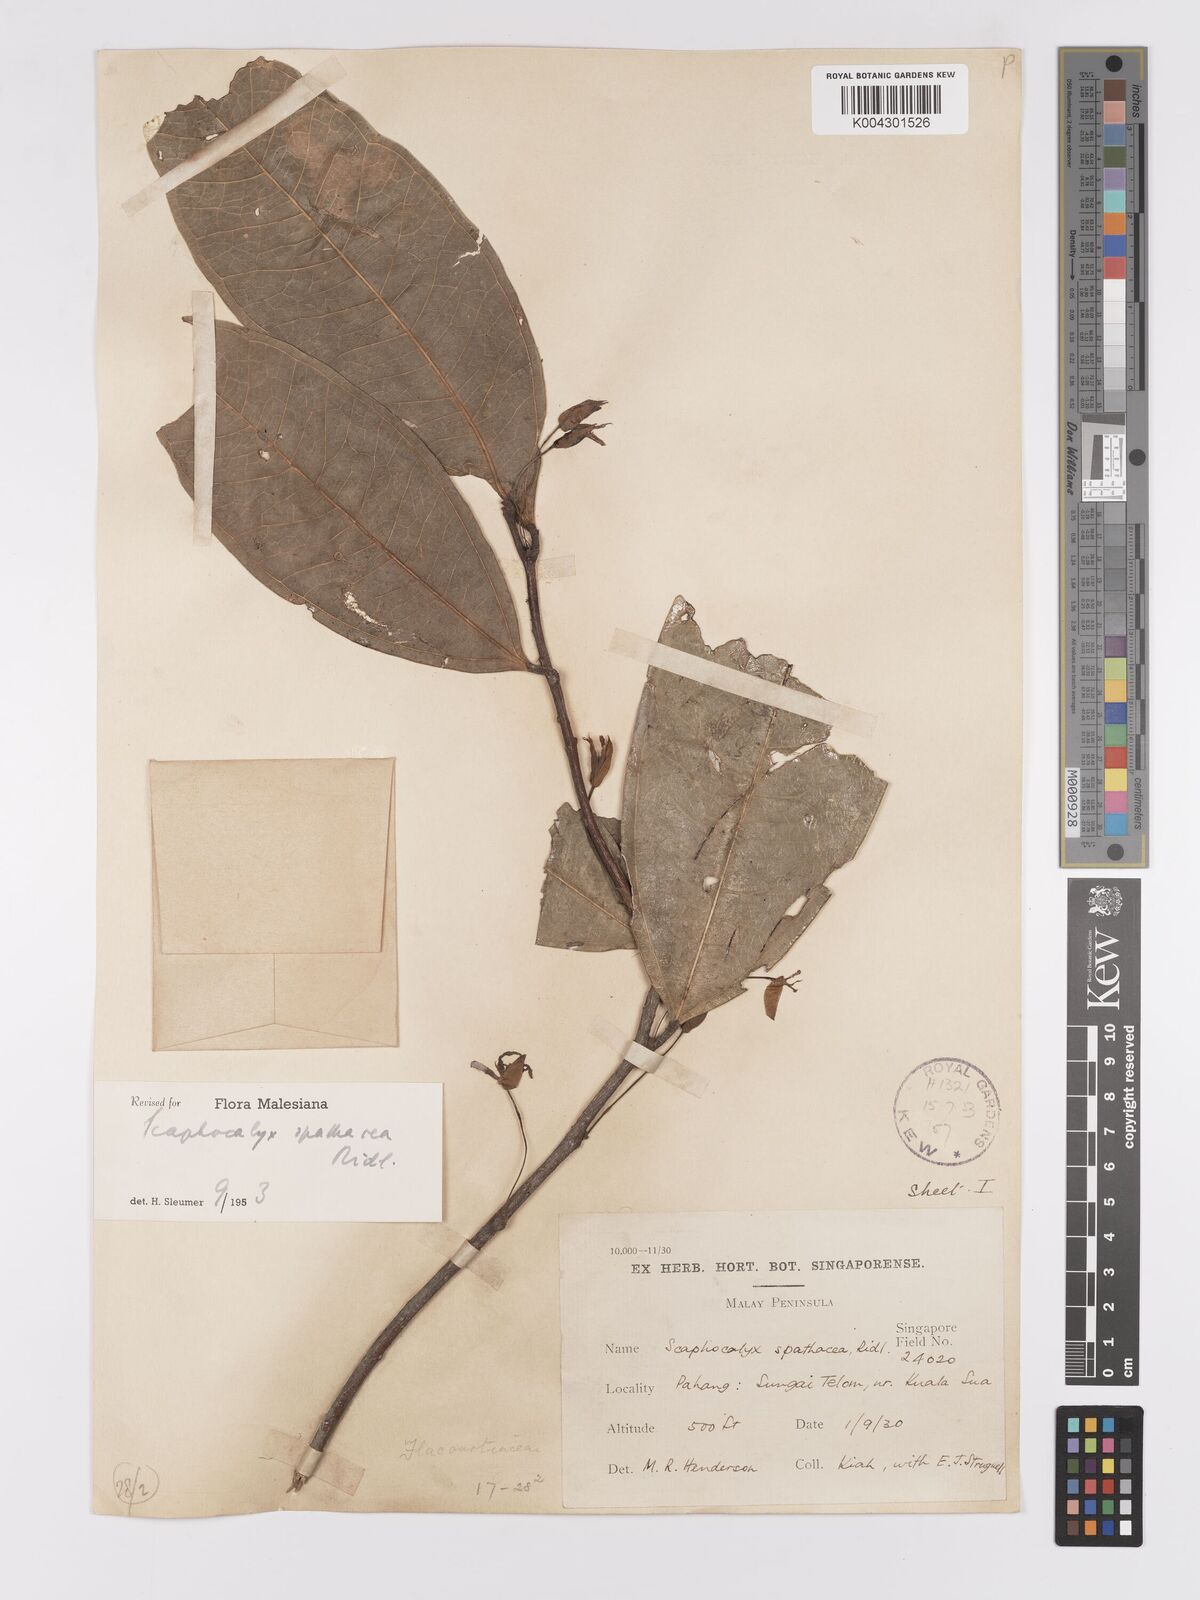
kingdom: Plantae
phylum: Tracheophyta
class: Magnoliopsida
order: Malpighiales
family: Achariaceae
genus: Scaphocalyx
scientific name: Scaphocalyx spathacea
